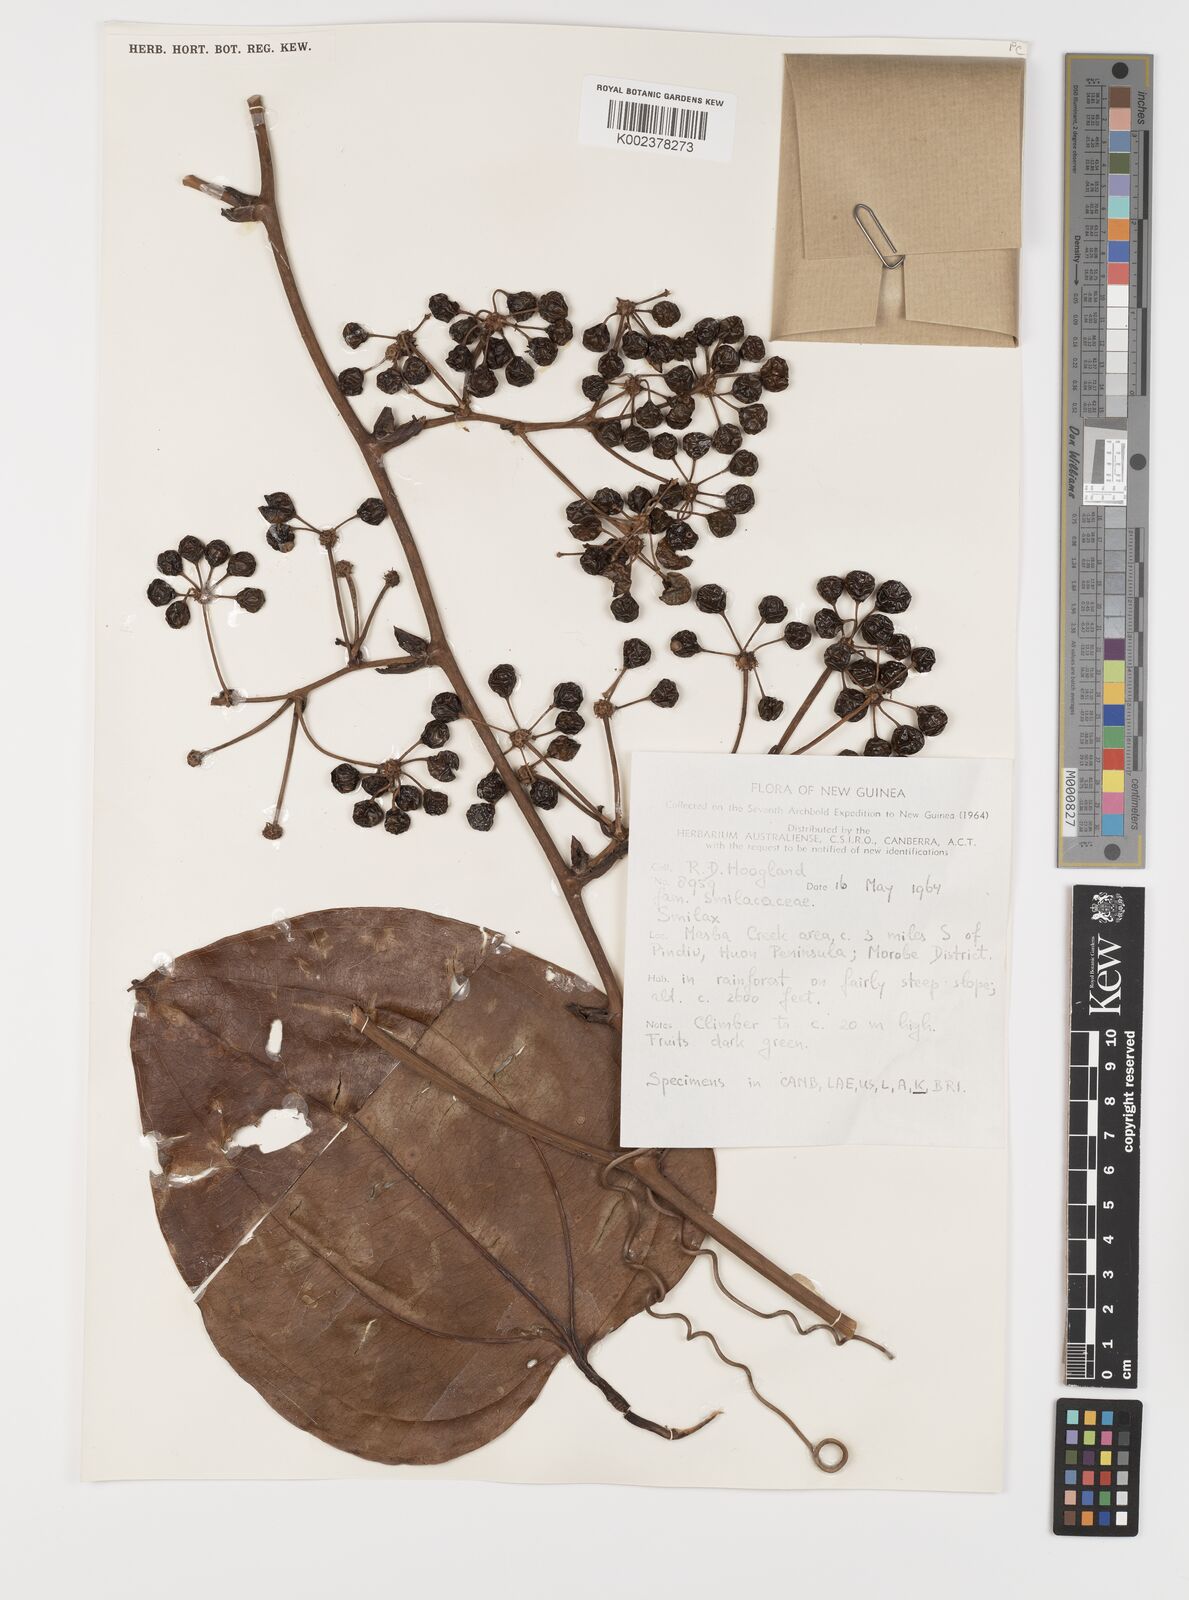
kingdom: Plantae
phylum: Tracheophyta
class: Liliopsida
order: Liliales
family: Smilacaceae
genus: Smilax
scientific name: Smilax
